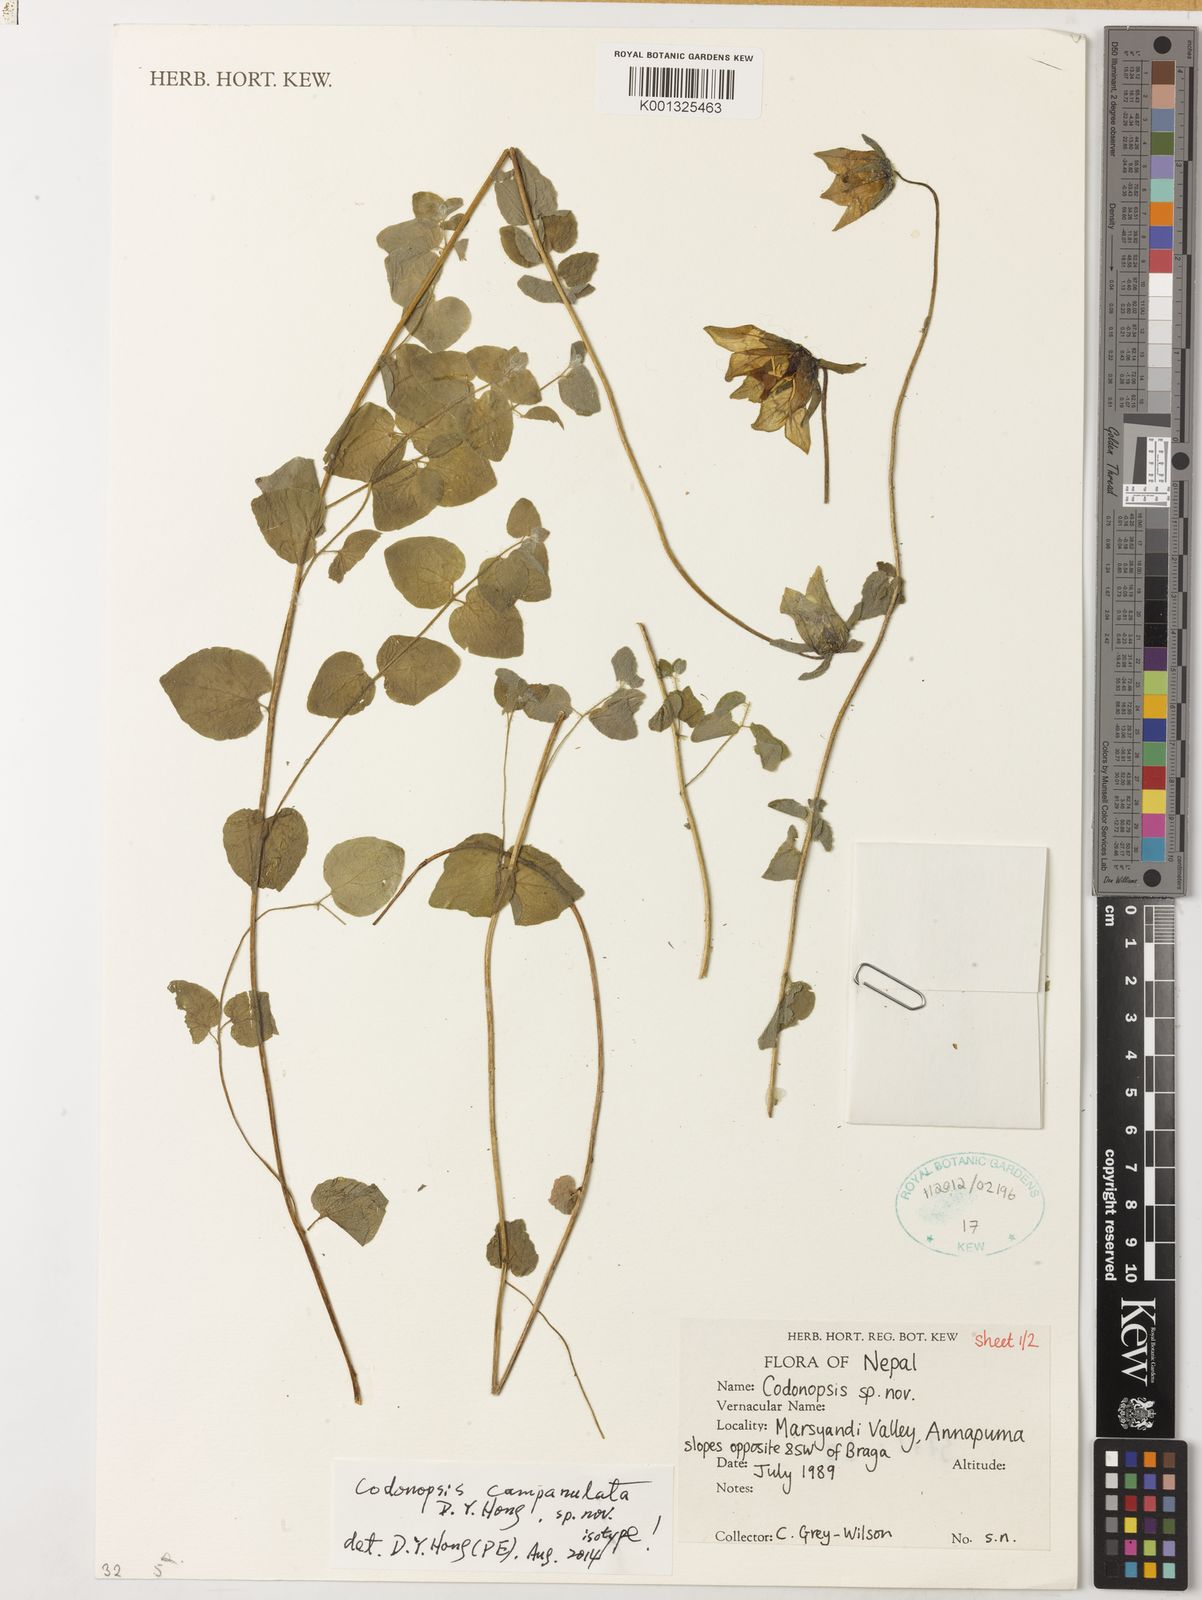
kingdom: Plantae
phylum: Tracheophyta
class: Magnoliopsida
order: Asterales
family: Campanulaceae
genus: Codonopsis
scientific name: Codonopsis campanulata
